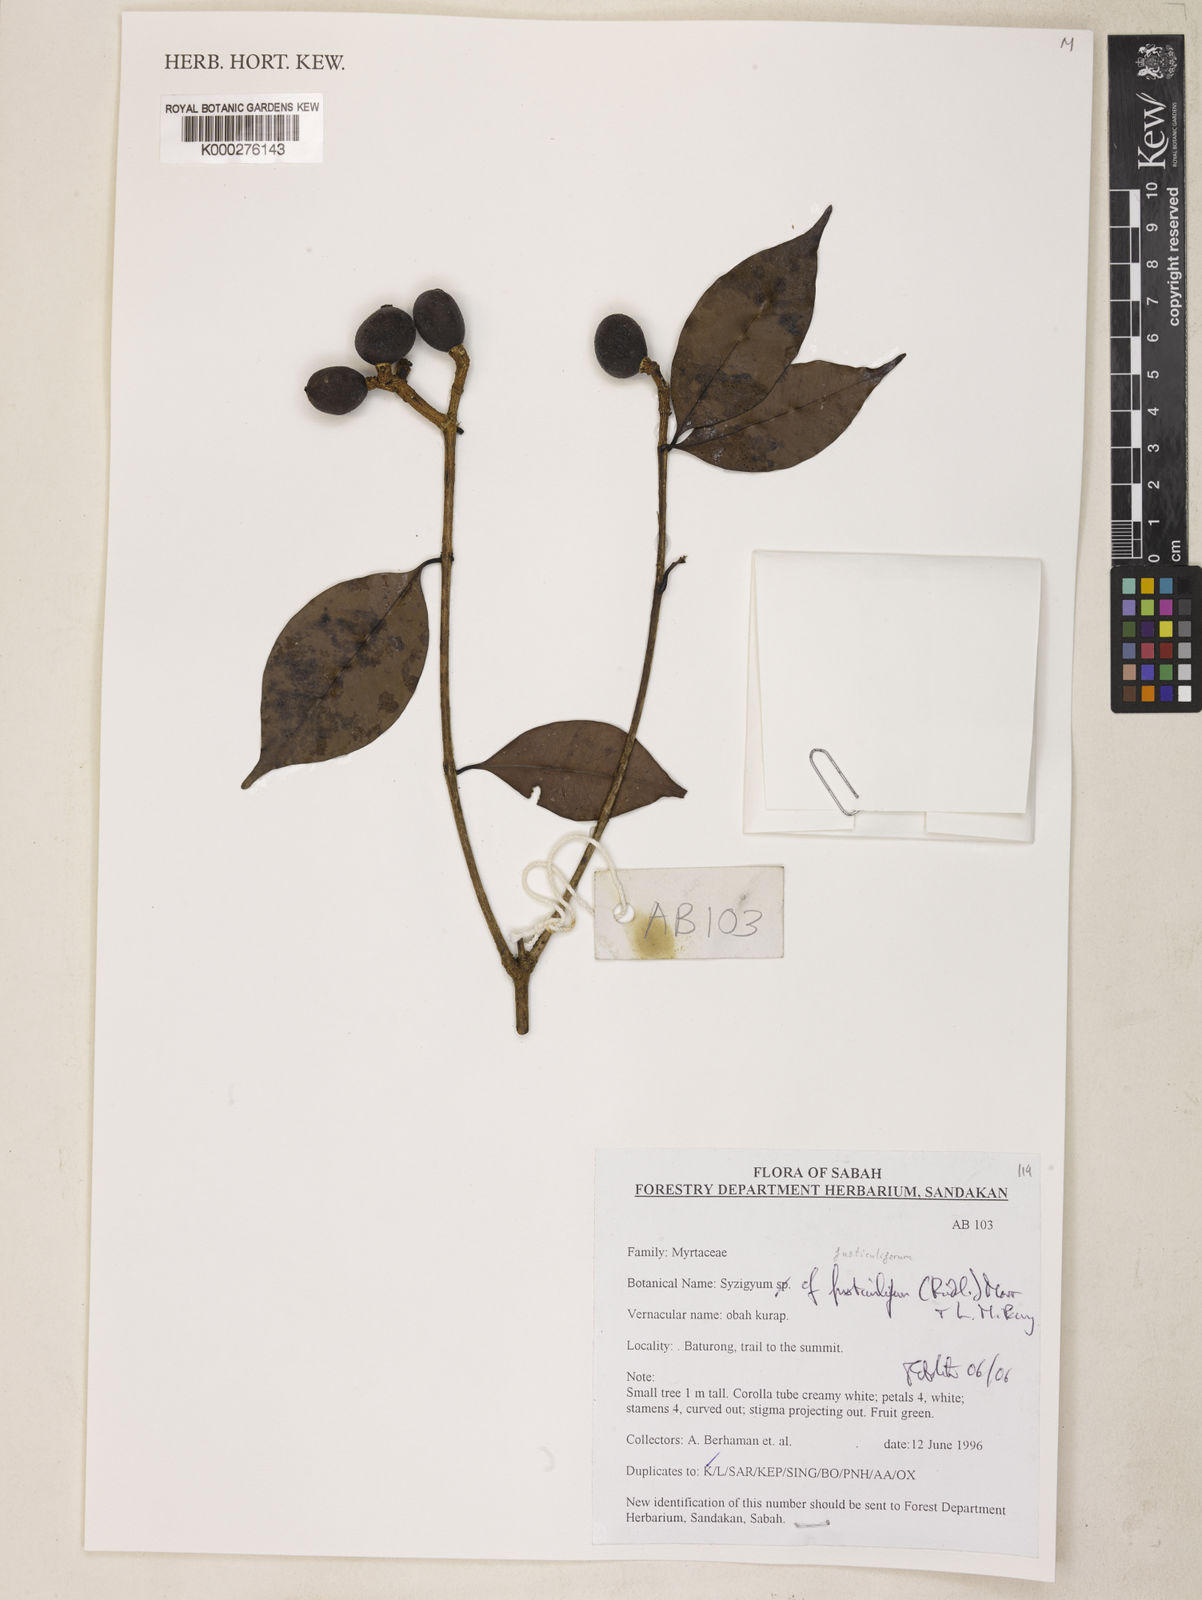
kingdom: Plantae
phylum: Tracheophyta
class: Magnoliopsida
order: Myrtales
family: Myrtaceae
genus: Syzygium
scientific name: Syzygium fusticuliferum
